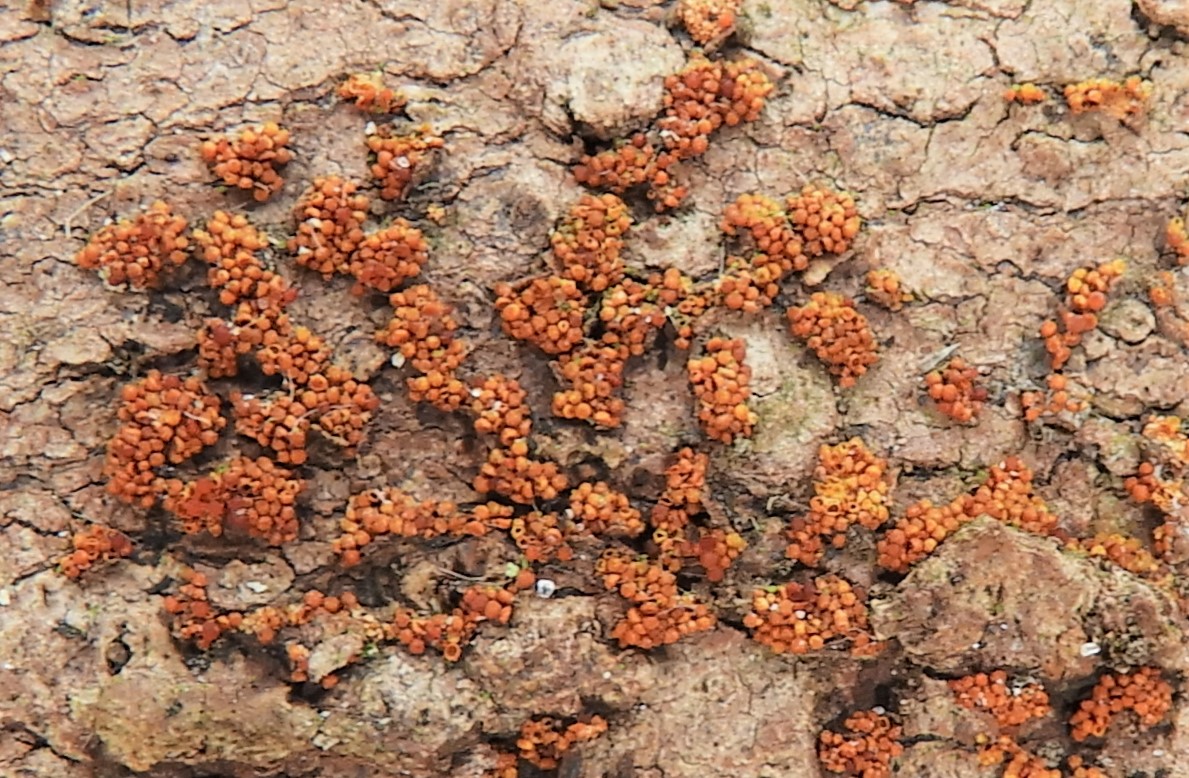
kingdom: Fungi
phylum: Ascomycota
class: Sordariomycetes
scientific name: Sordariomycetes
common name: kernesvampklassen
